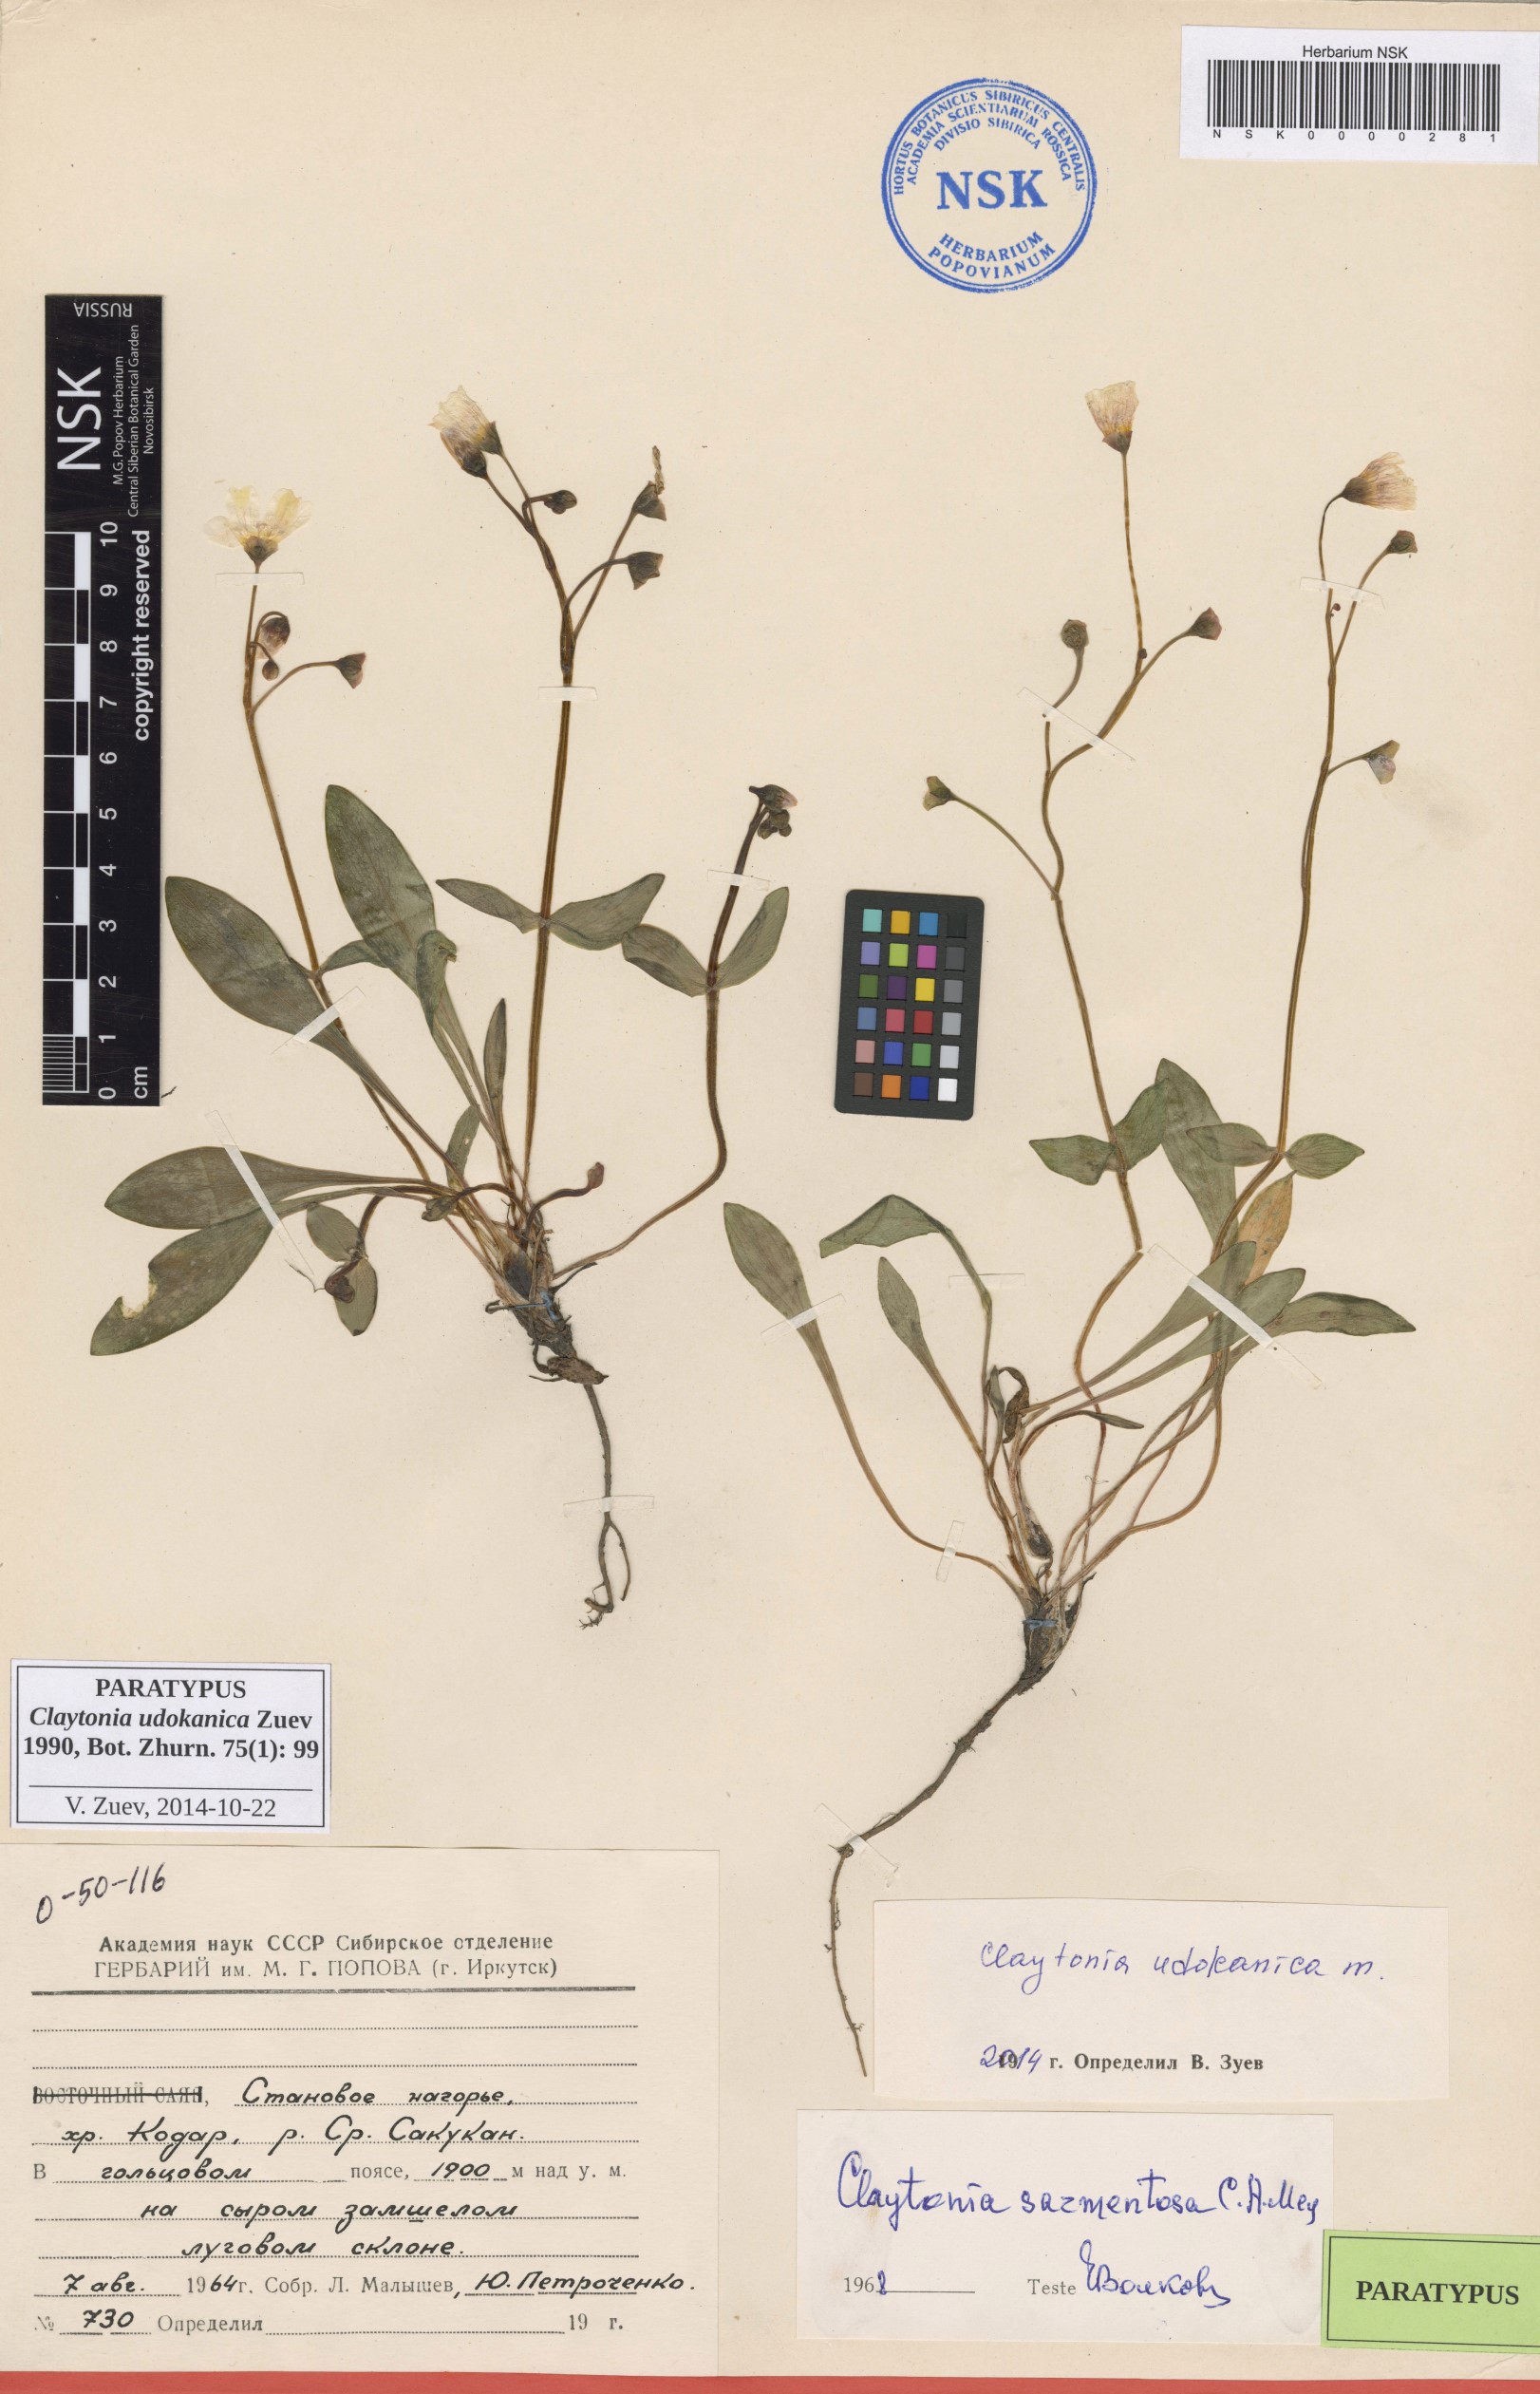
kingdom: Plantae
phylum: Tracheophyta
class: Magnoliopsida
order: Caryophyllales
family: Montiaceae
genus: Claytonia
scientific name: Claytonia udokanica
